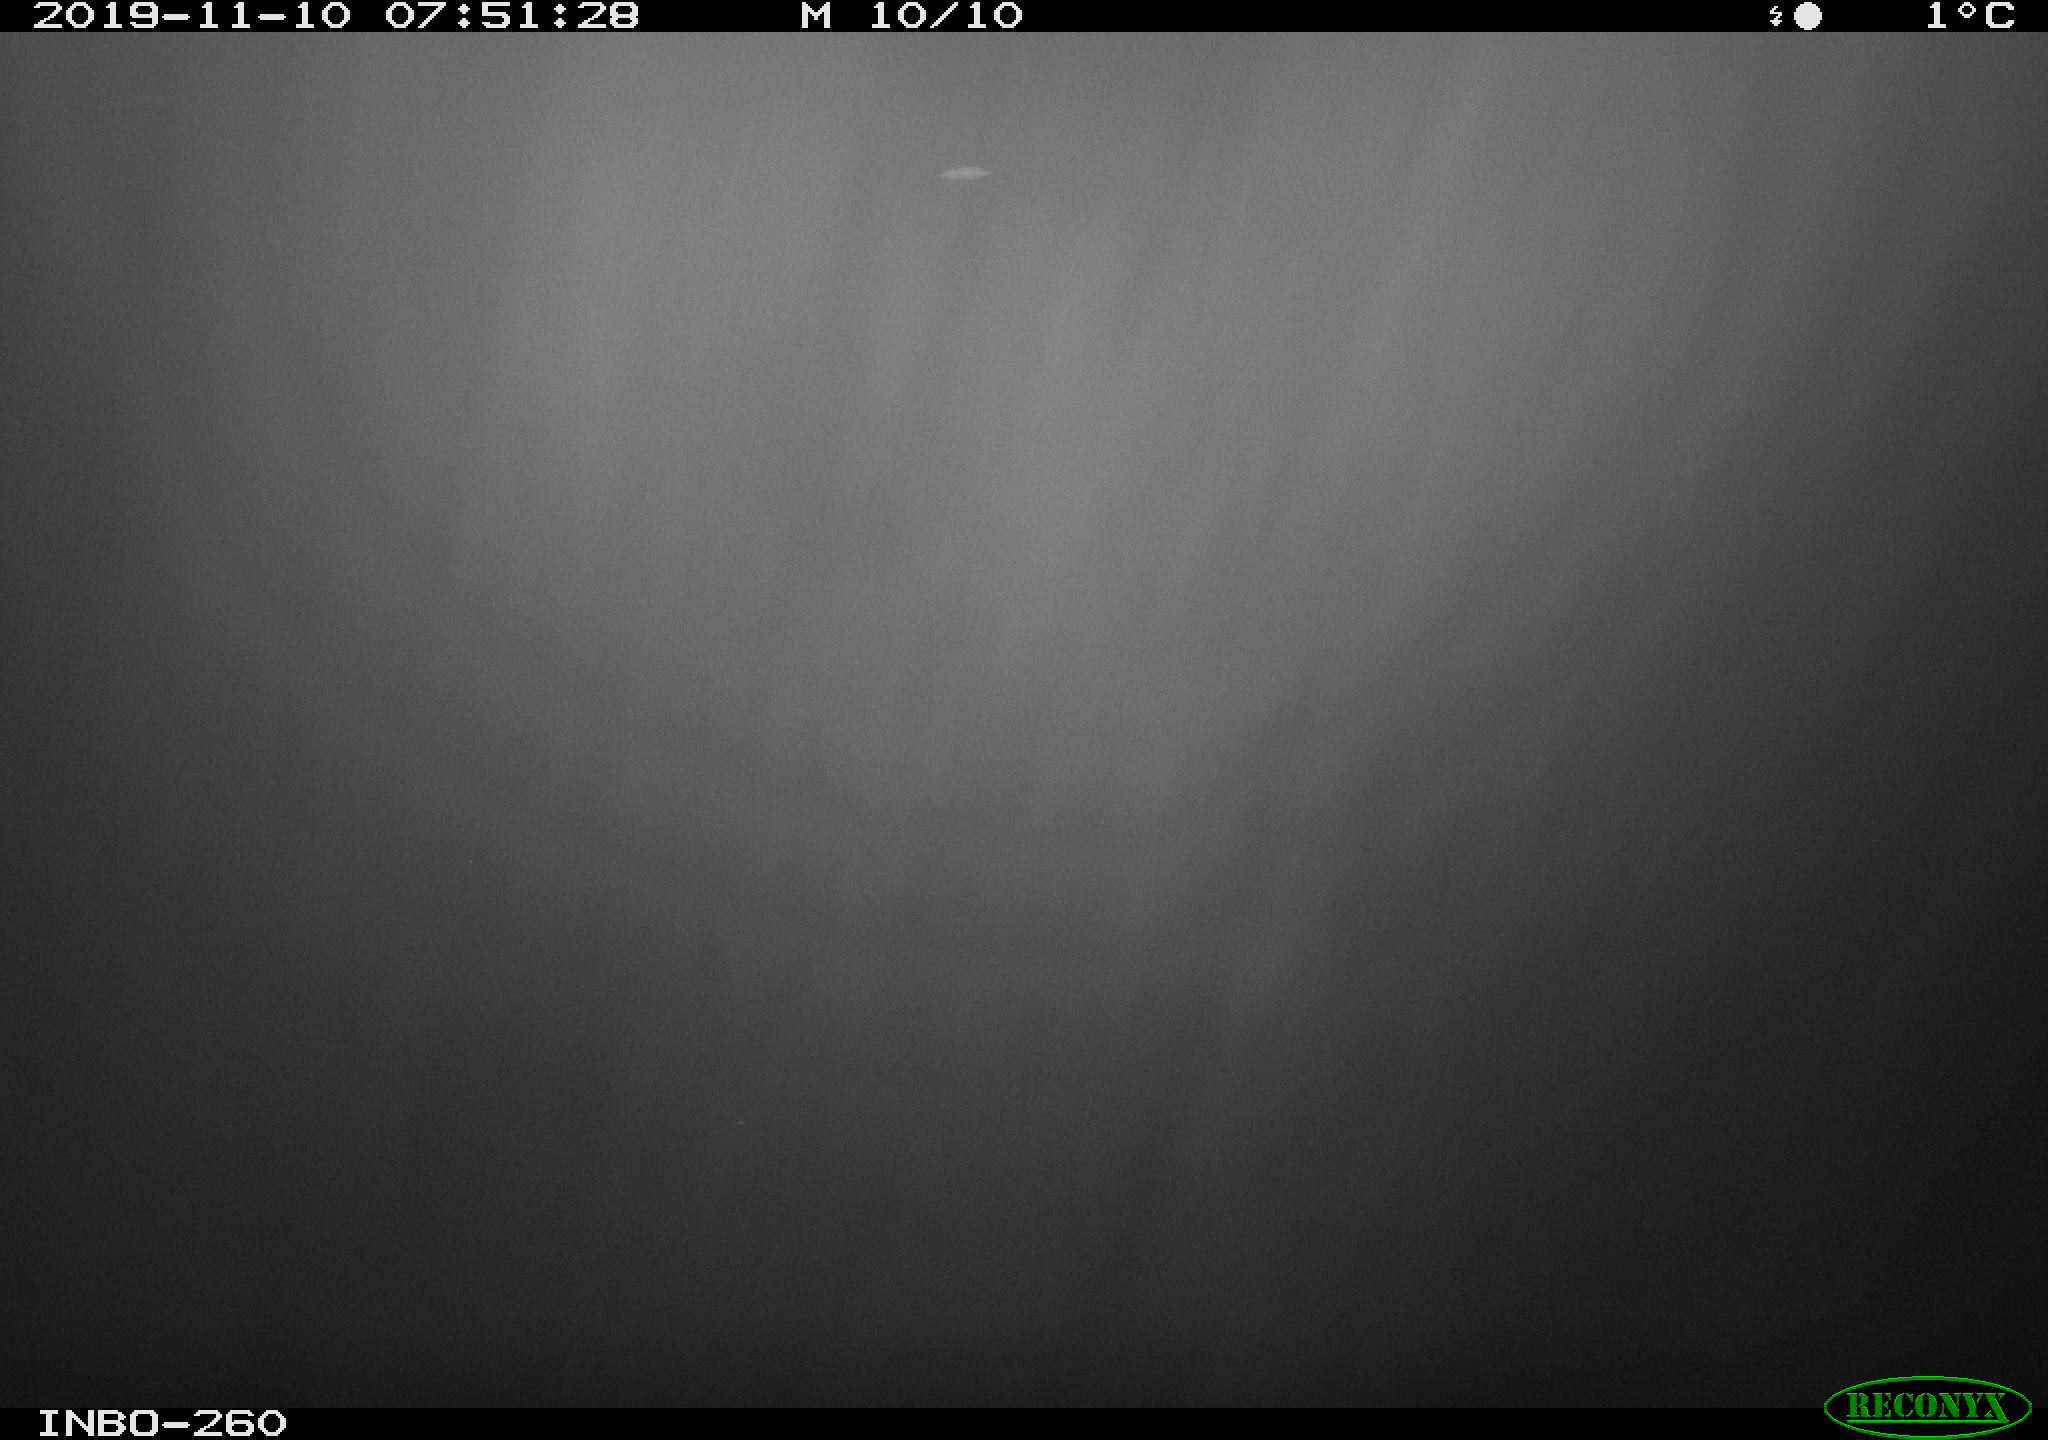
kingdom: Animalia
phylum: Chordata
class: Aves
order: Anseriformes
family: Anatidae
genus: Anas
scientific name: Anas platyrhynchos
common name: Mallard
